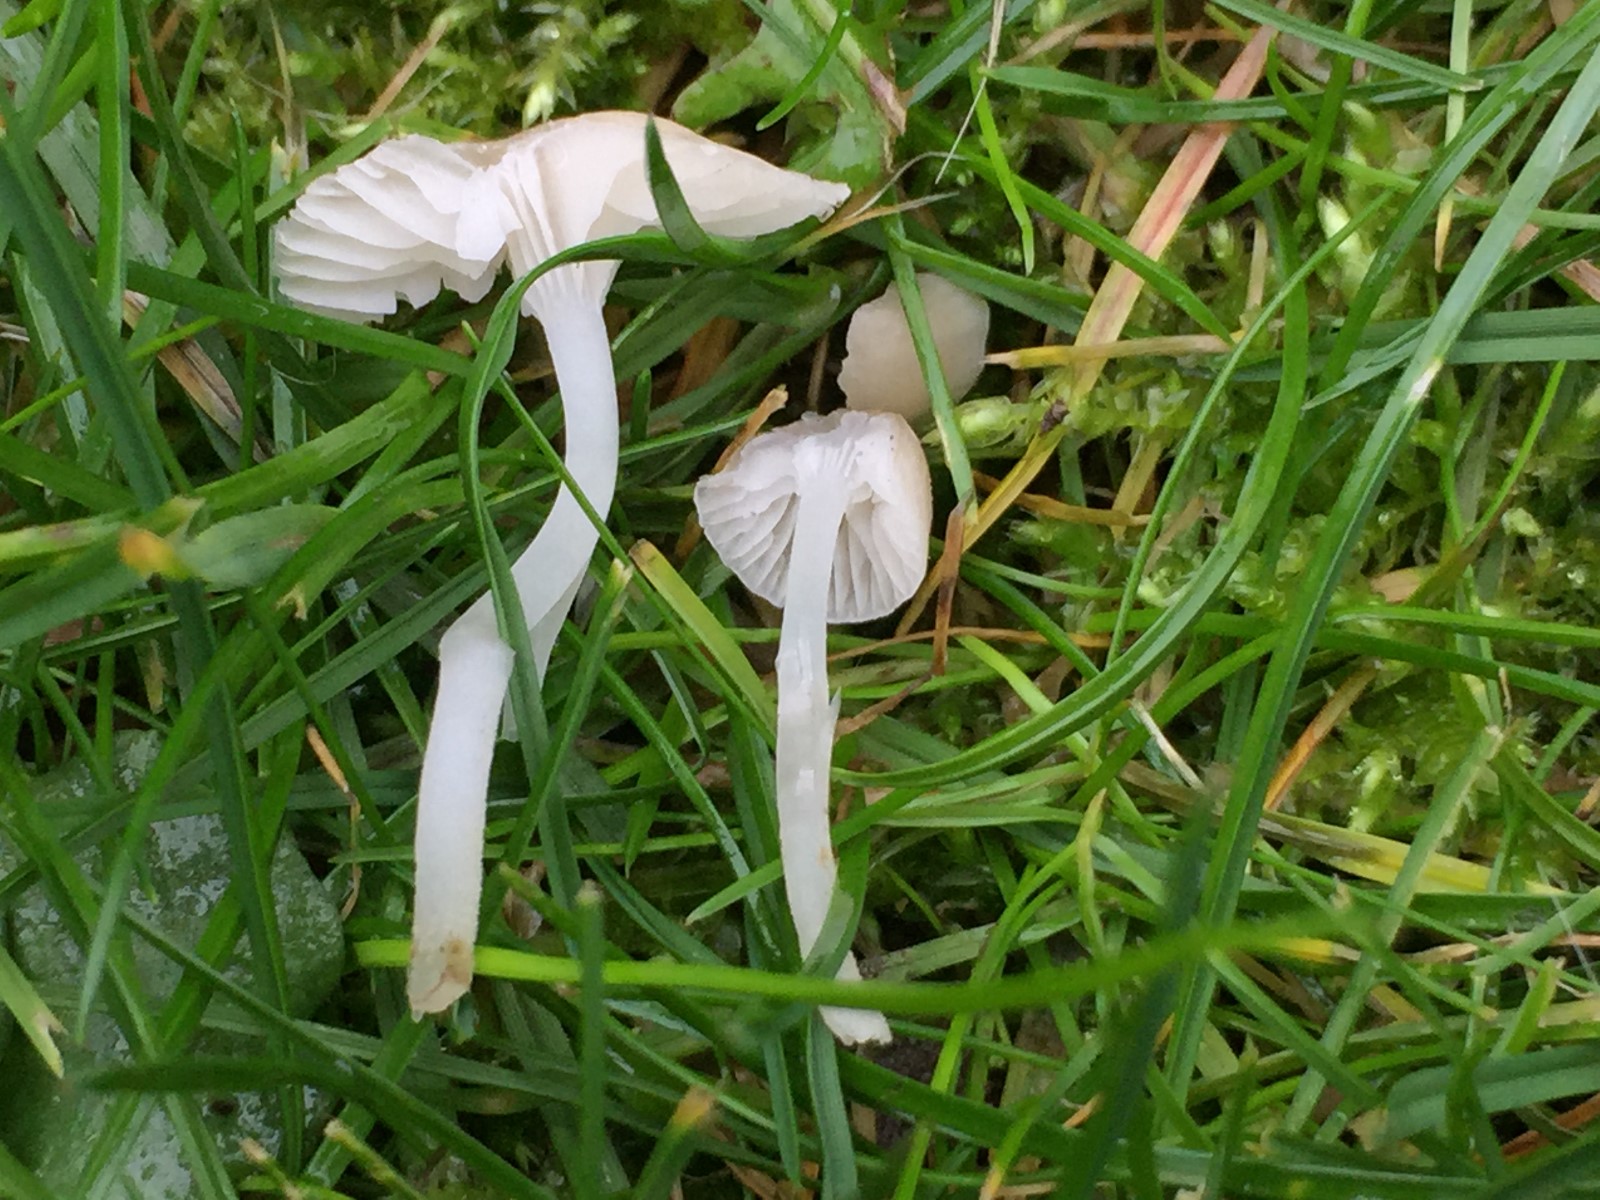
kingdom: Fungi
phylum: Basidiomycota
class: Agaricomycetes
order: Agaricales
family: Mycenaceae
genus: Hemimycena
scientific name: Hemimycena mairei
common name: voks-huesvamp
